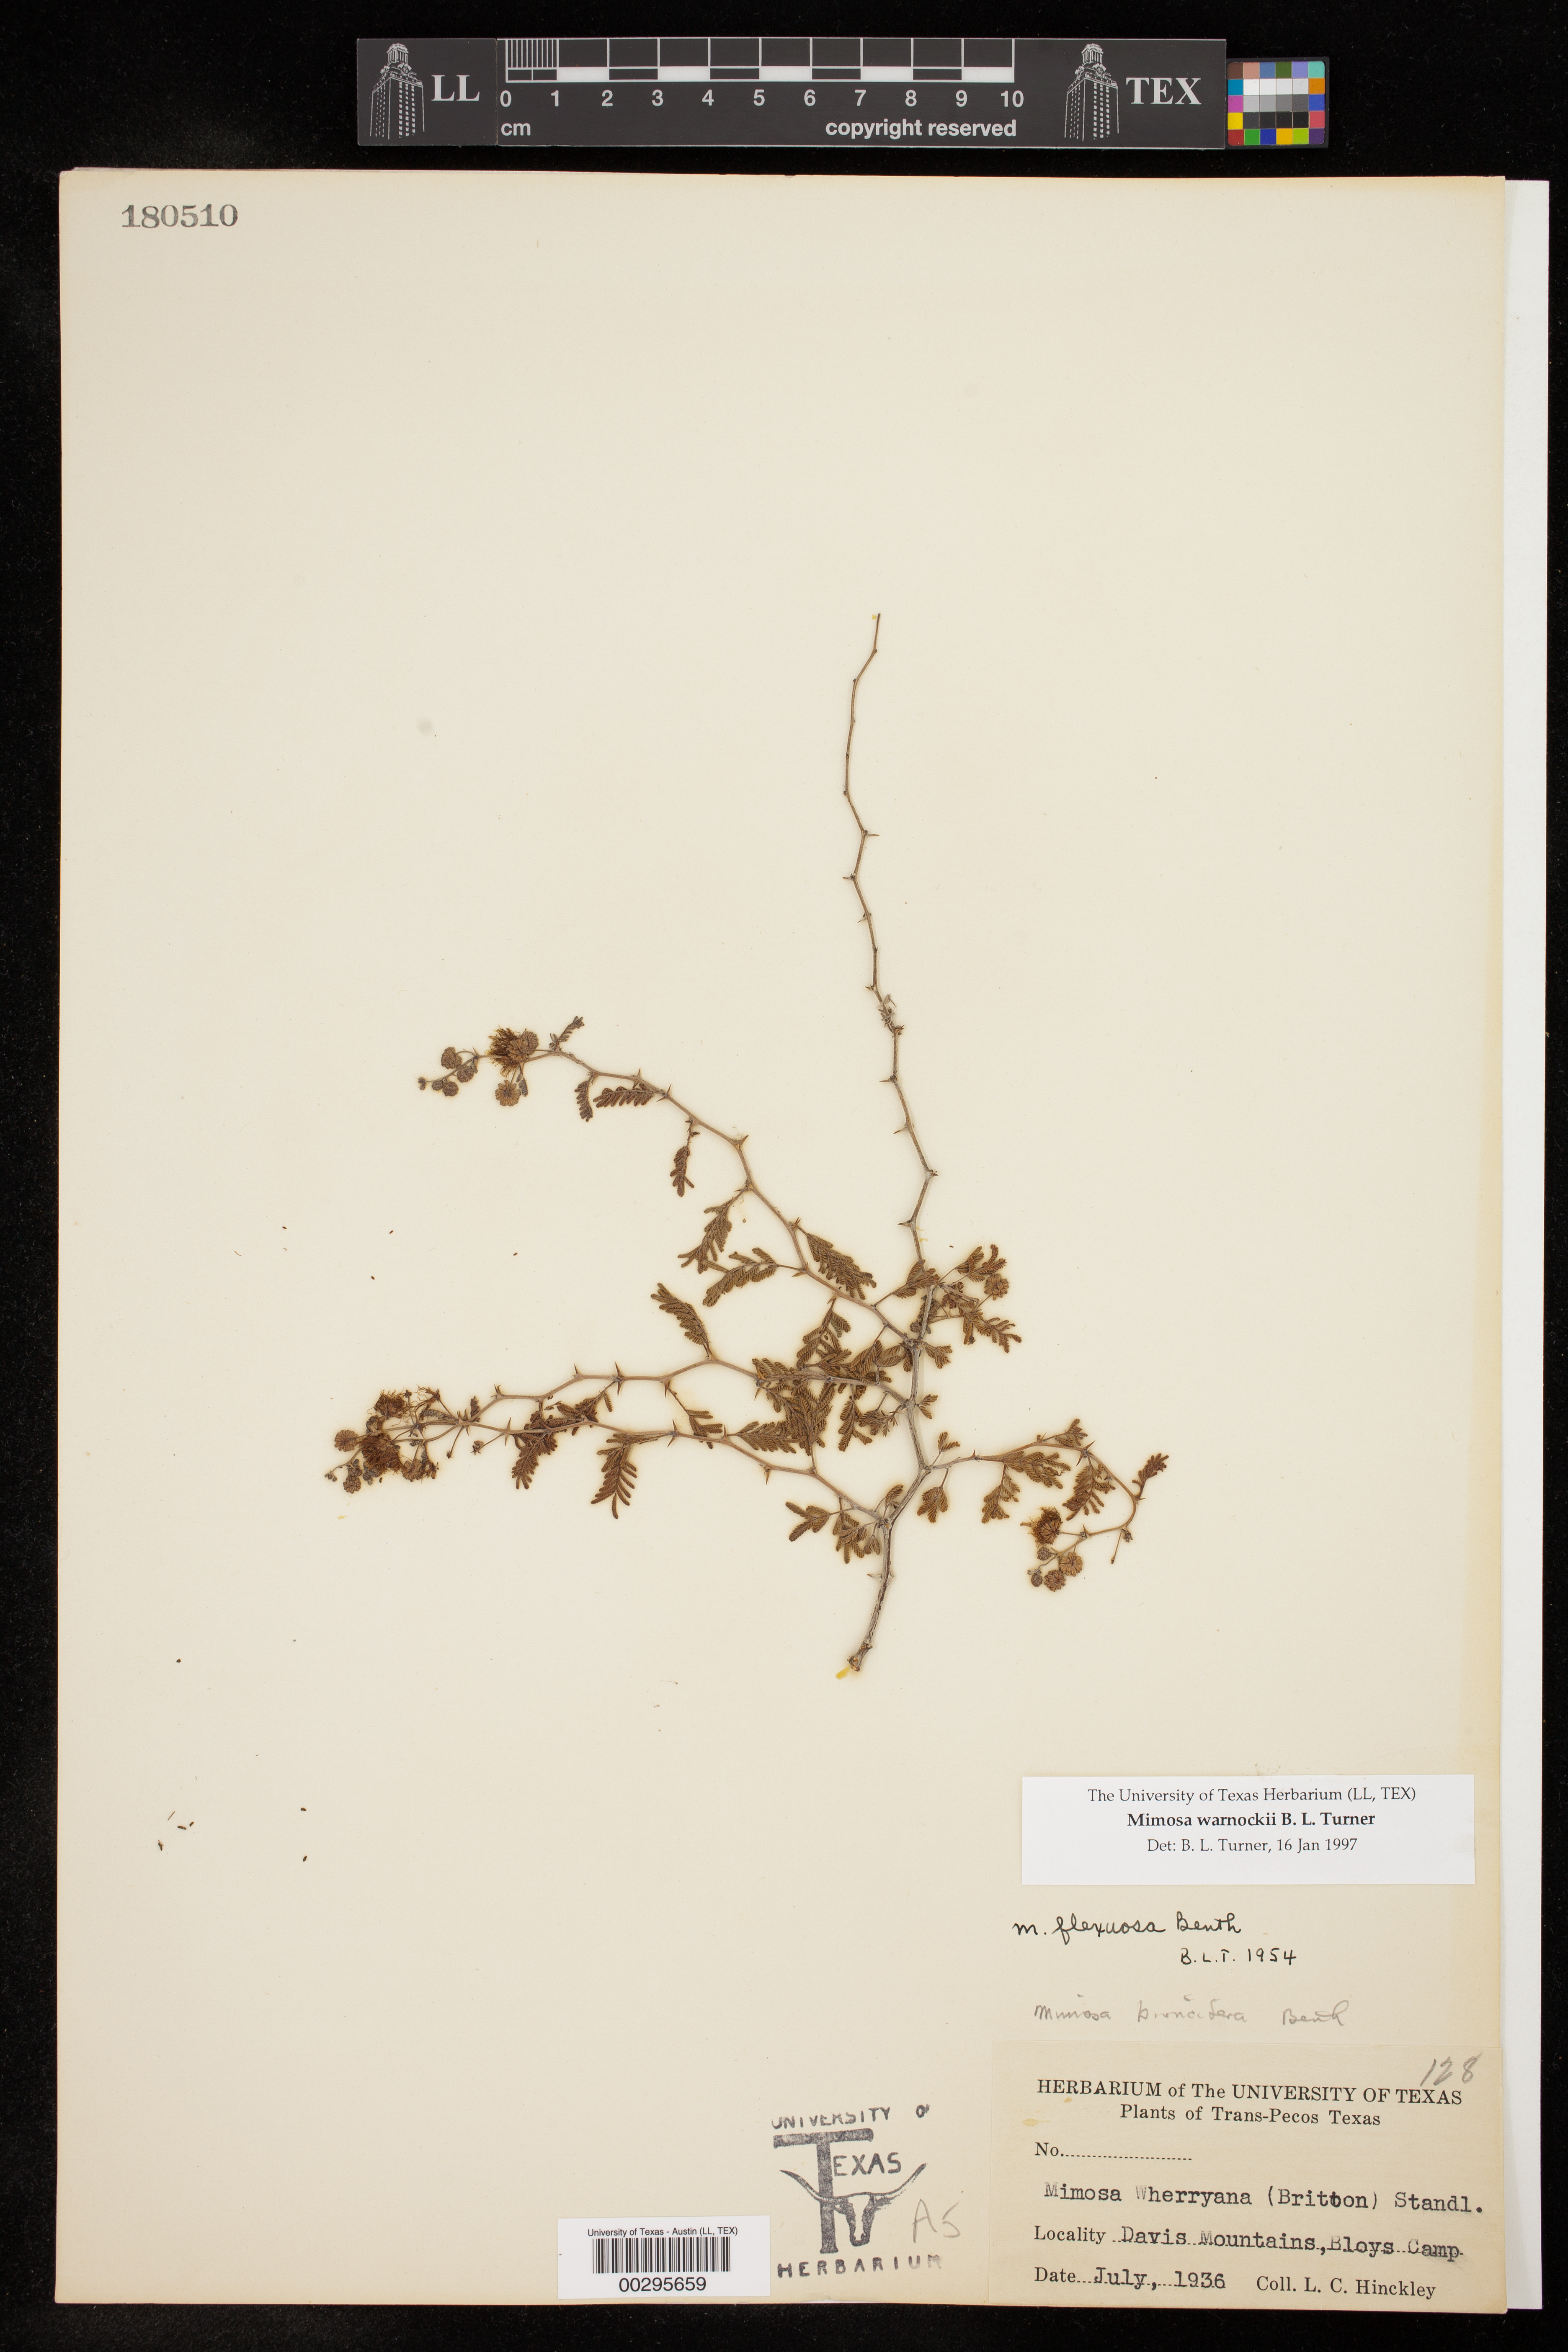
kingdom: Plantae
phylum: Tracheophyta
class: Magnoliopsida
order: Fabales
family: Fabaceae
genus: Mimosa
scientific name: Mimosa biuncifera
